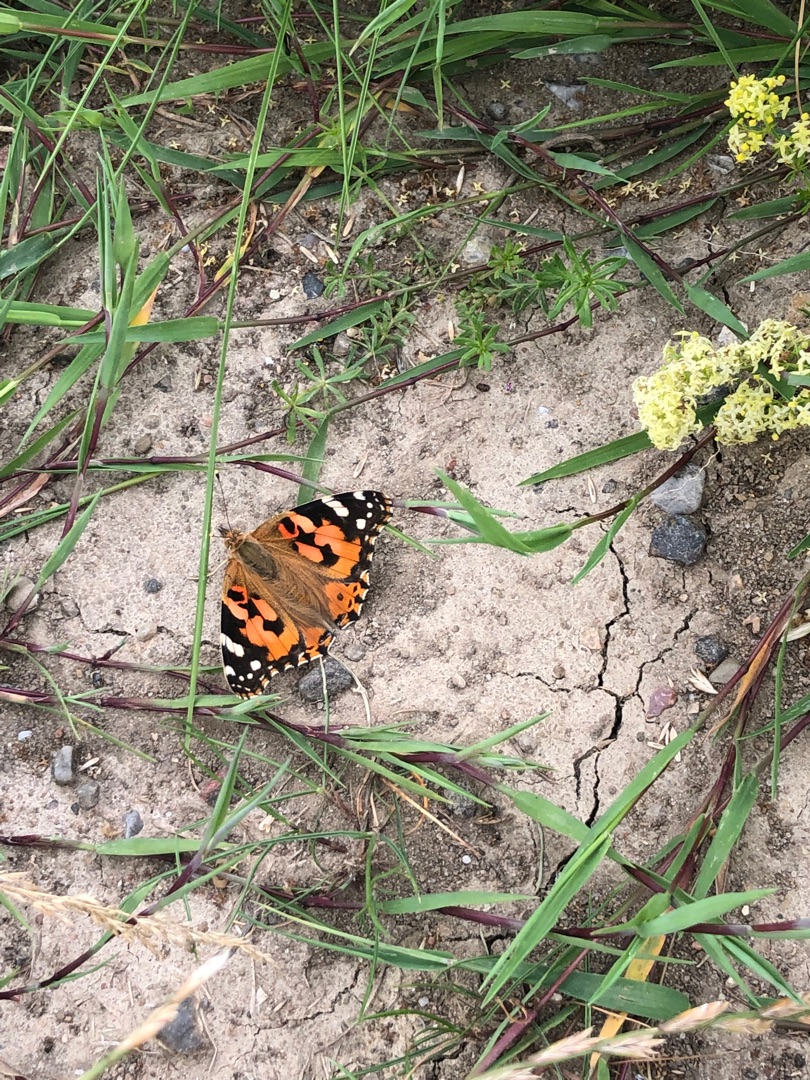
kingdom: Animalia
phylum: Arthropoda
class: Insecta
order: Lepidoptera
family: Nymphalidae
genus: Vanessa
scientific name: Vanessa cardui
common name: Tidselsommerfugl
